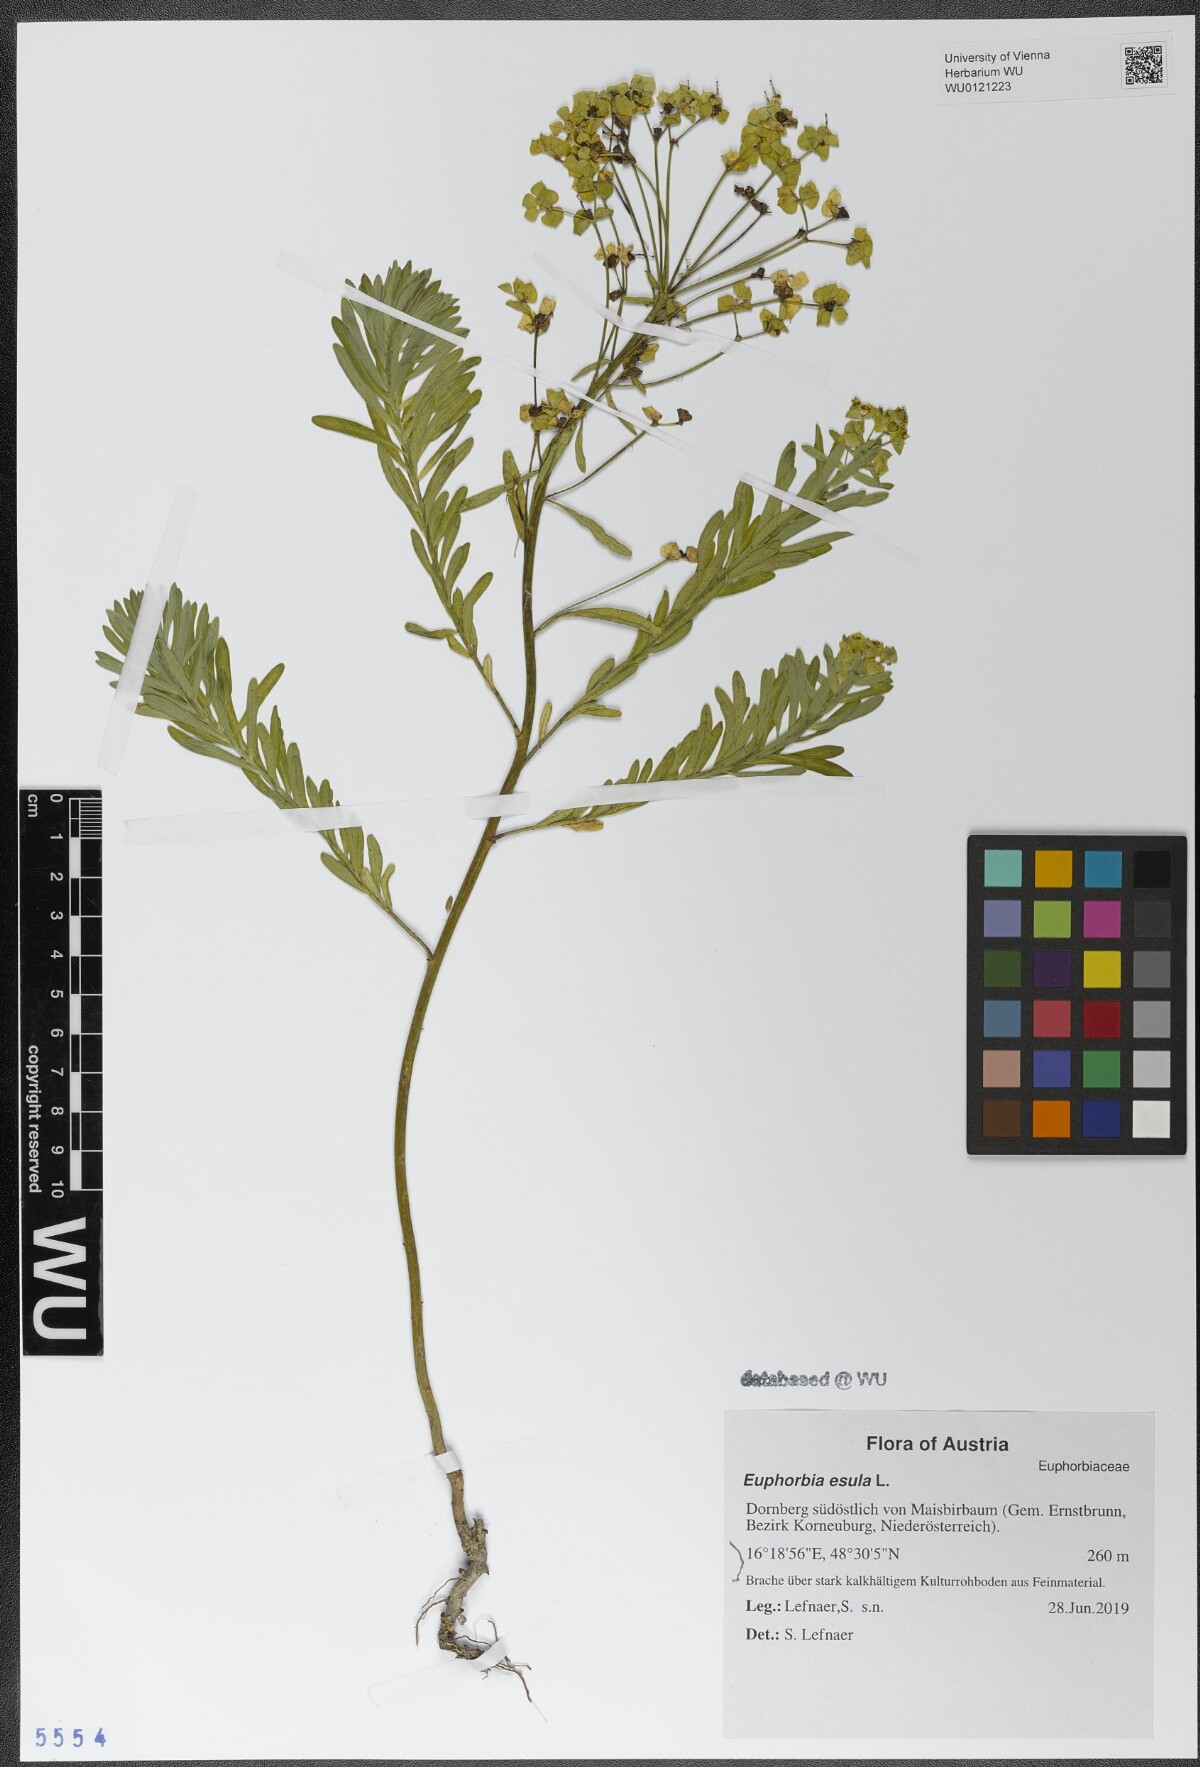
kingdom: Plantae
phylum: Tracheophyta
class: Magnoliopsida
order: Malpighiales
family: Euphorbiaceae
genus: Euphorbia
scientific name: Euphorbia esula
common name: Leafy spurge
